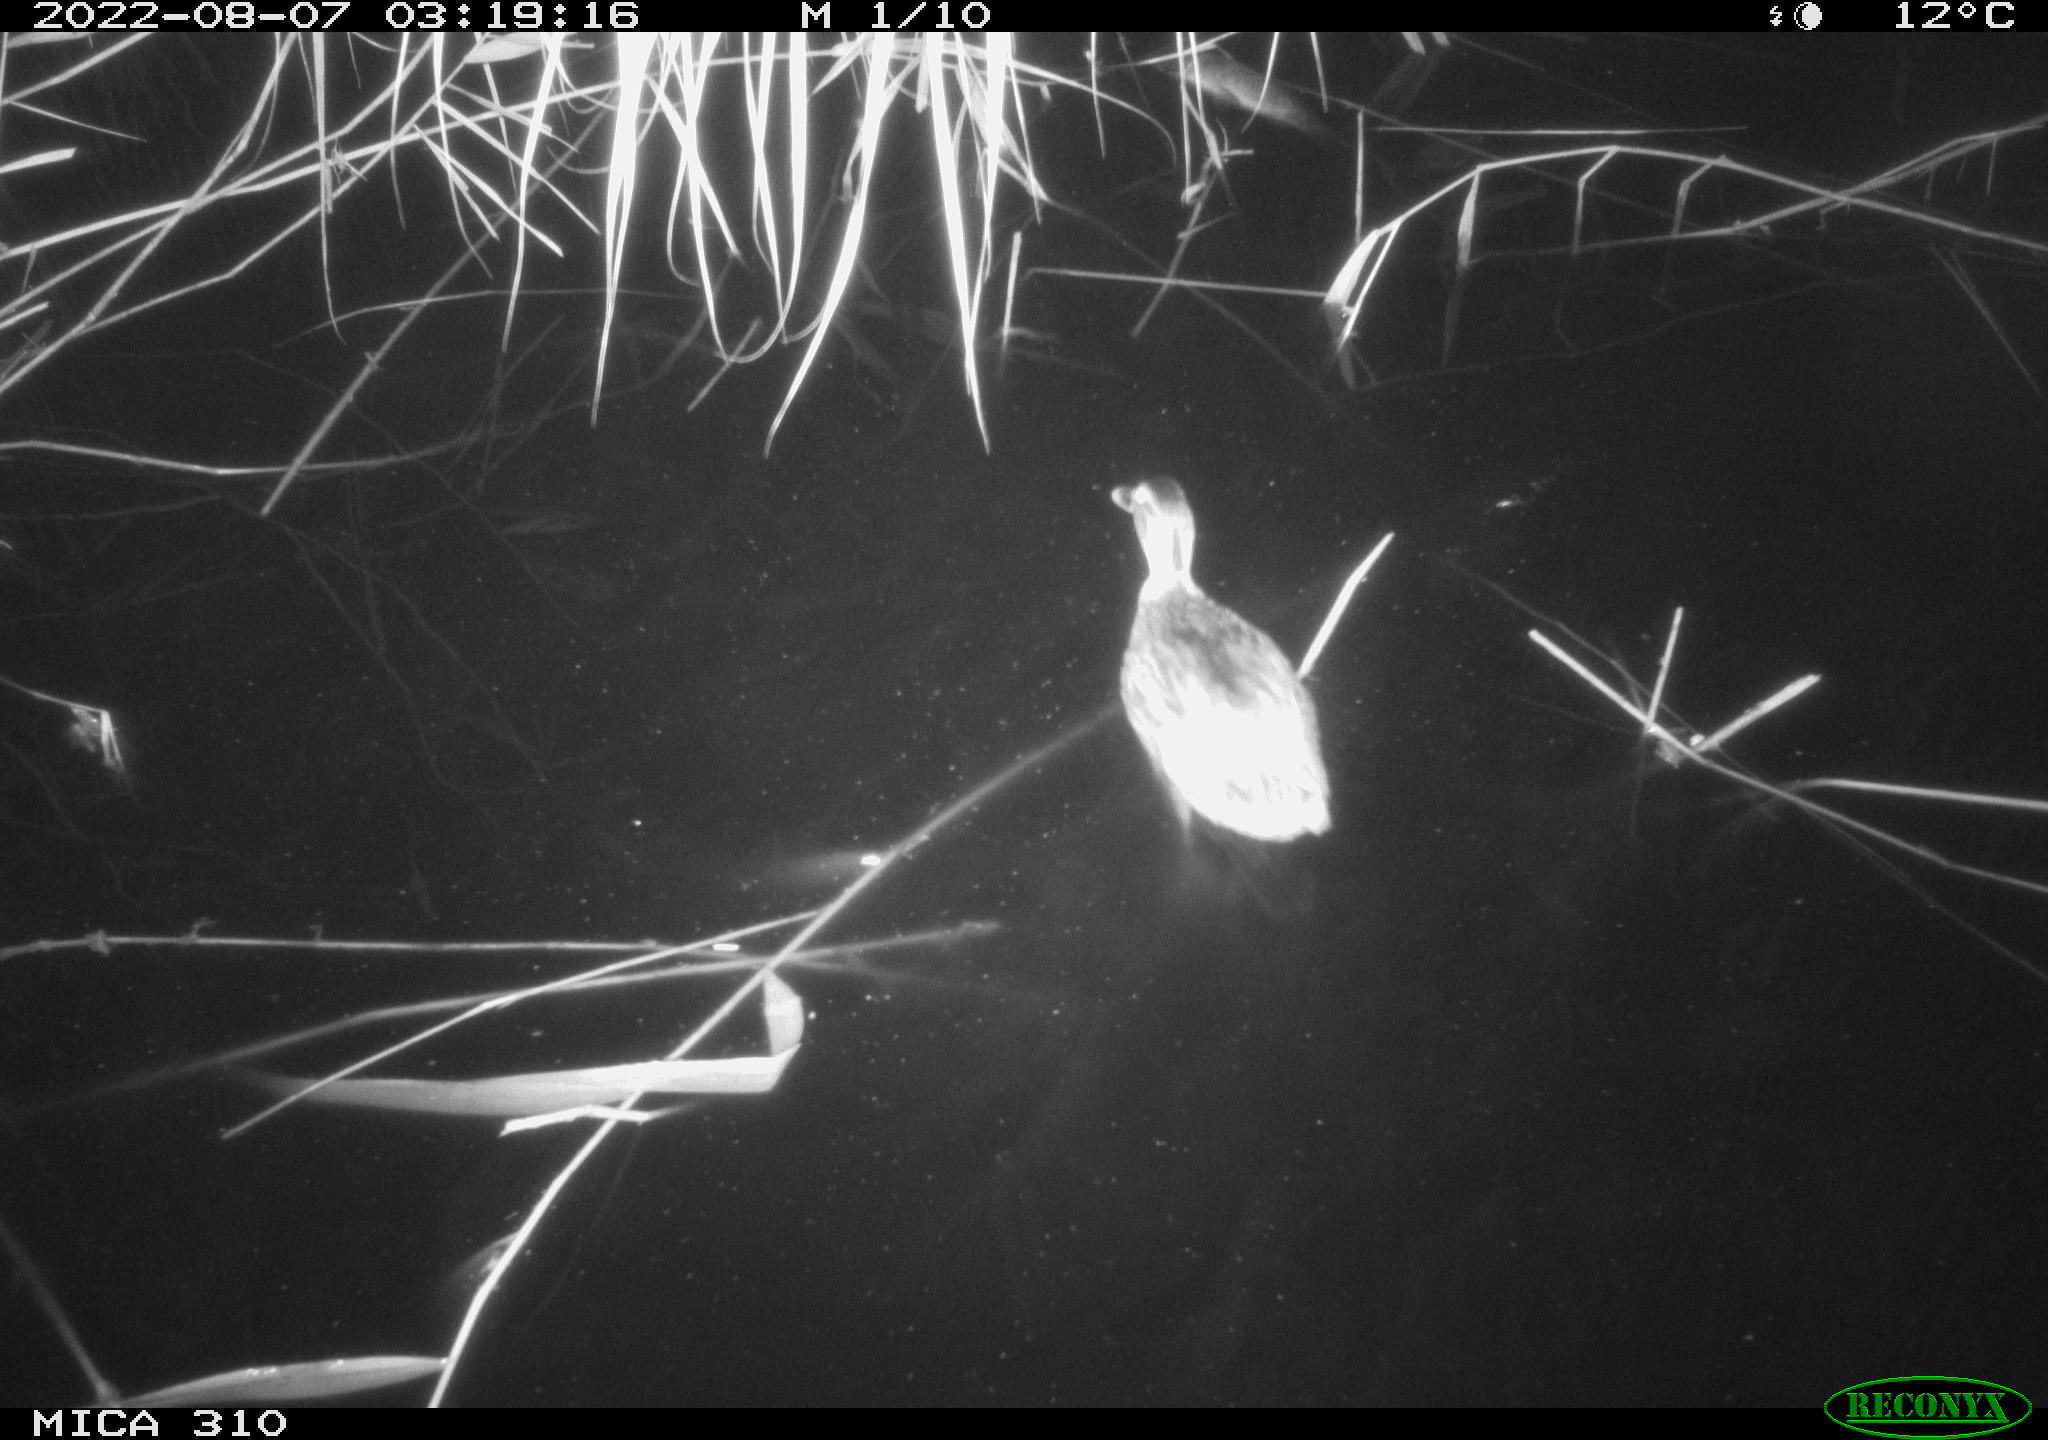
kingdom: Animalia
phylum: Chordata
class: Aves
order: Anseriformes
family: Anatidae
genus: Anas
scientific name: Anas platyrhynchos
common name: Mallard
